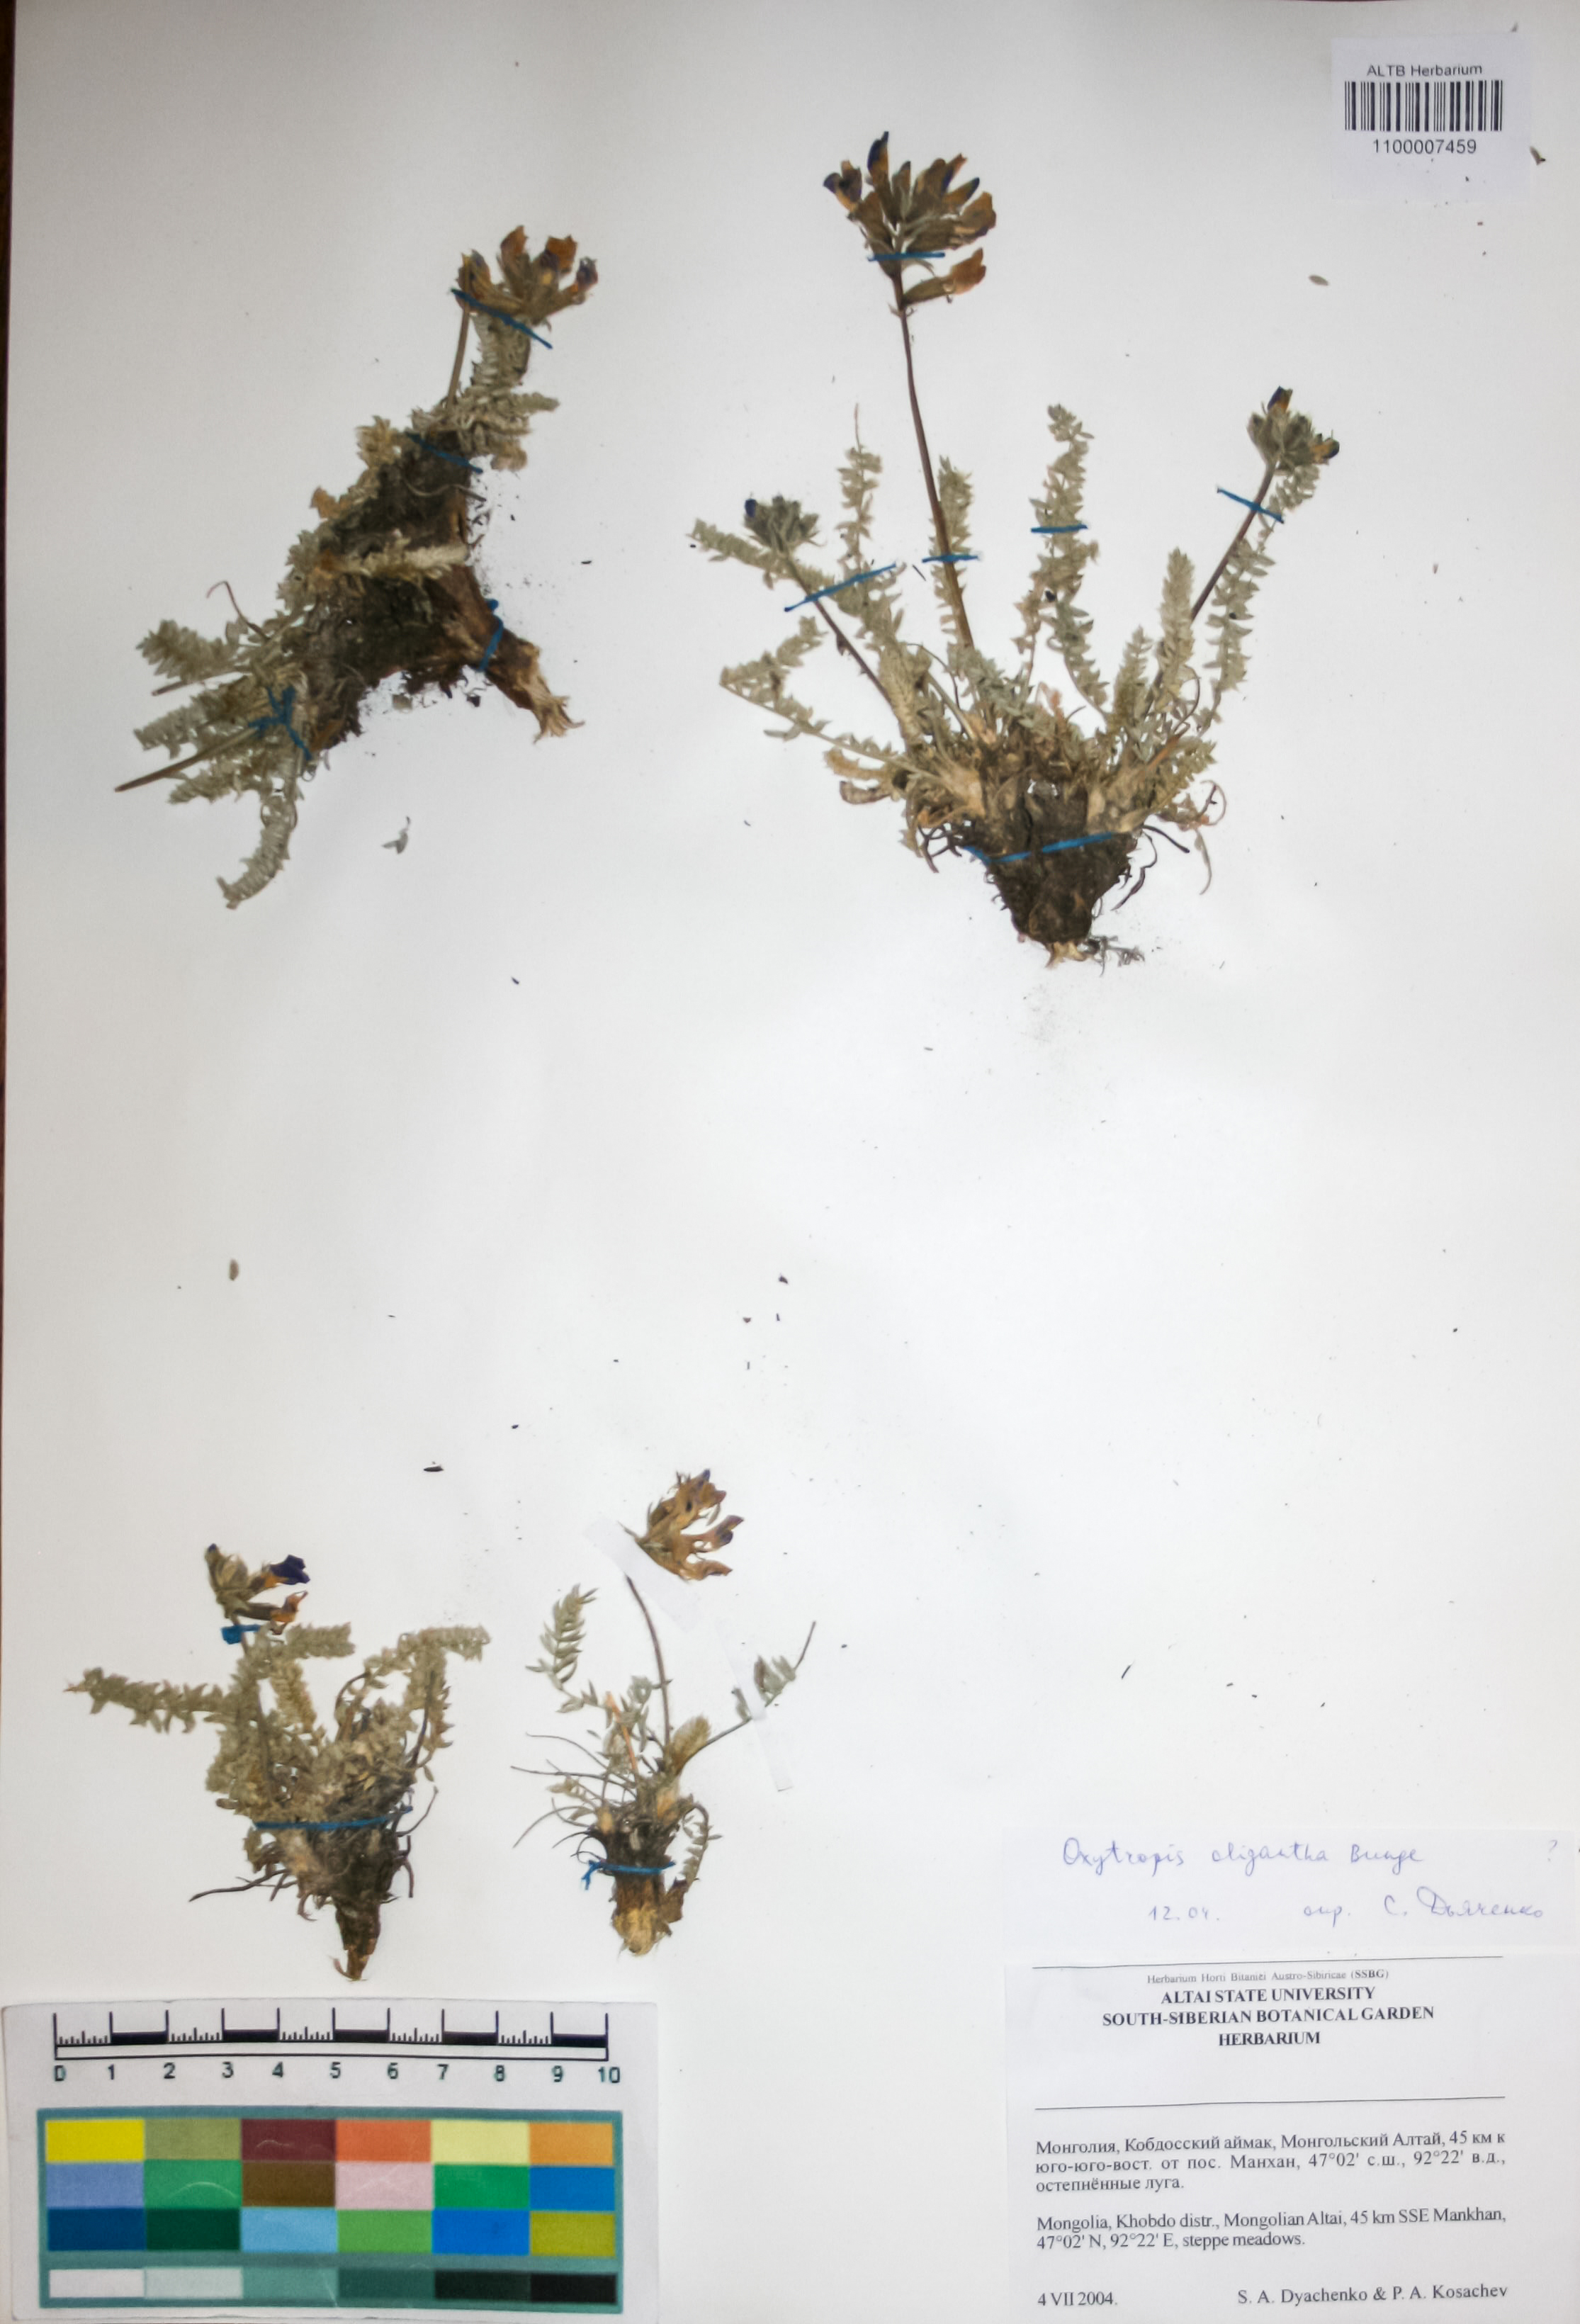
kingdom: Plantae
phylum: Tracheophyta
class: Magnoliopsida
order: Fabales
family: Fabaceae
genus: Oxytropis
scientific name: Oxytropis
